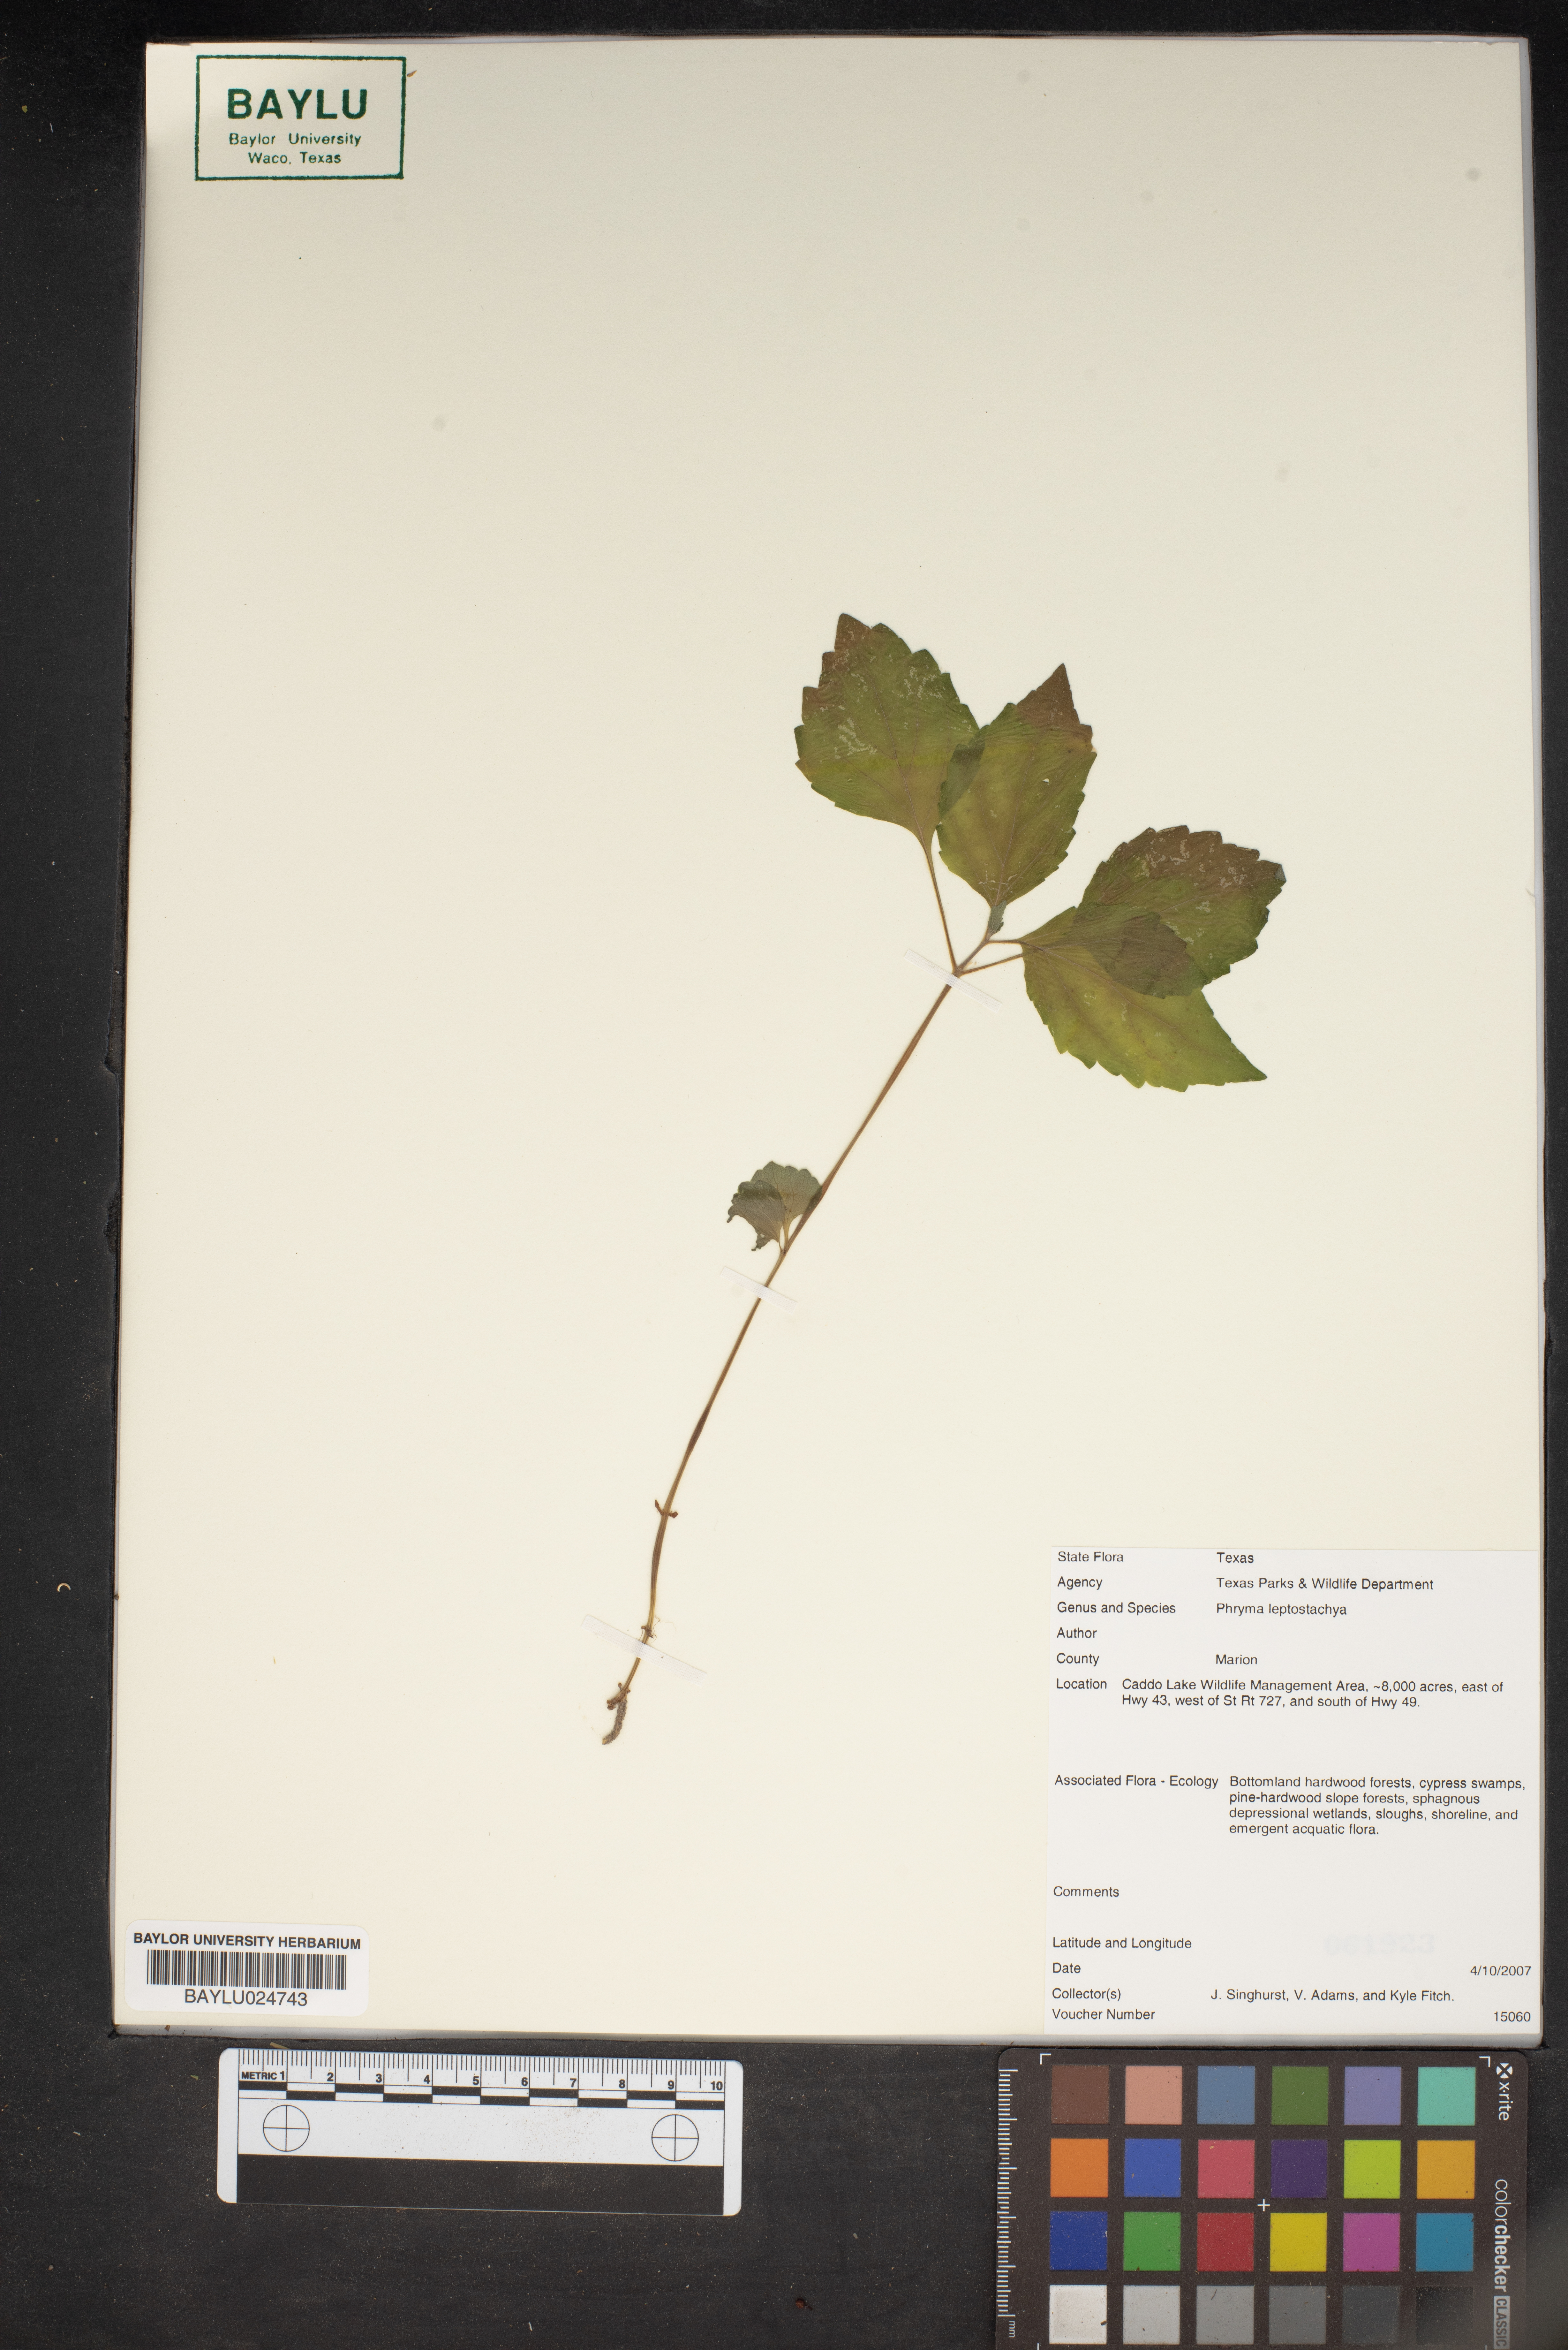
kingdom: Plantae
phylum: Tracheophyta
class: Magnoliopsida
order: Lamiales
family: Phrymaceae
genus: Phryma
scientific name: Phryma leptostachya
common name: American lopseed
